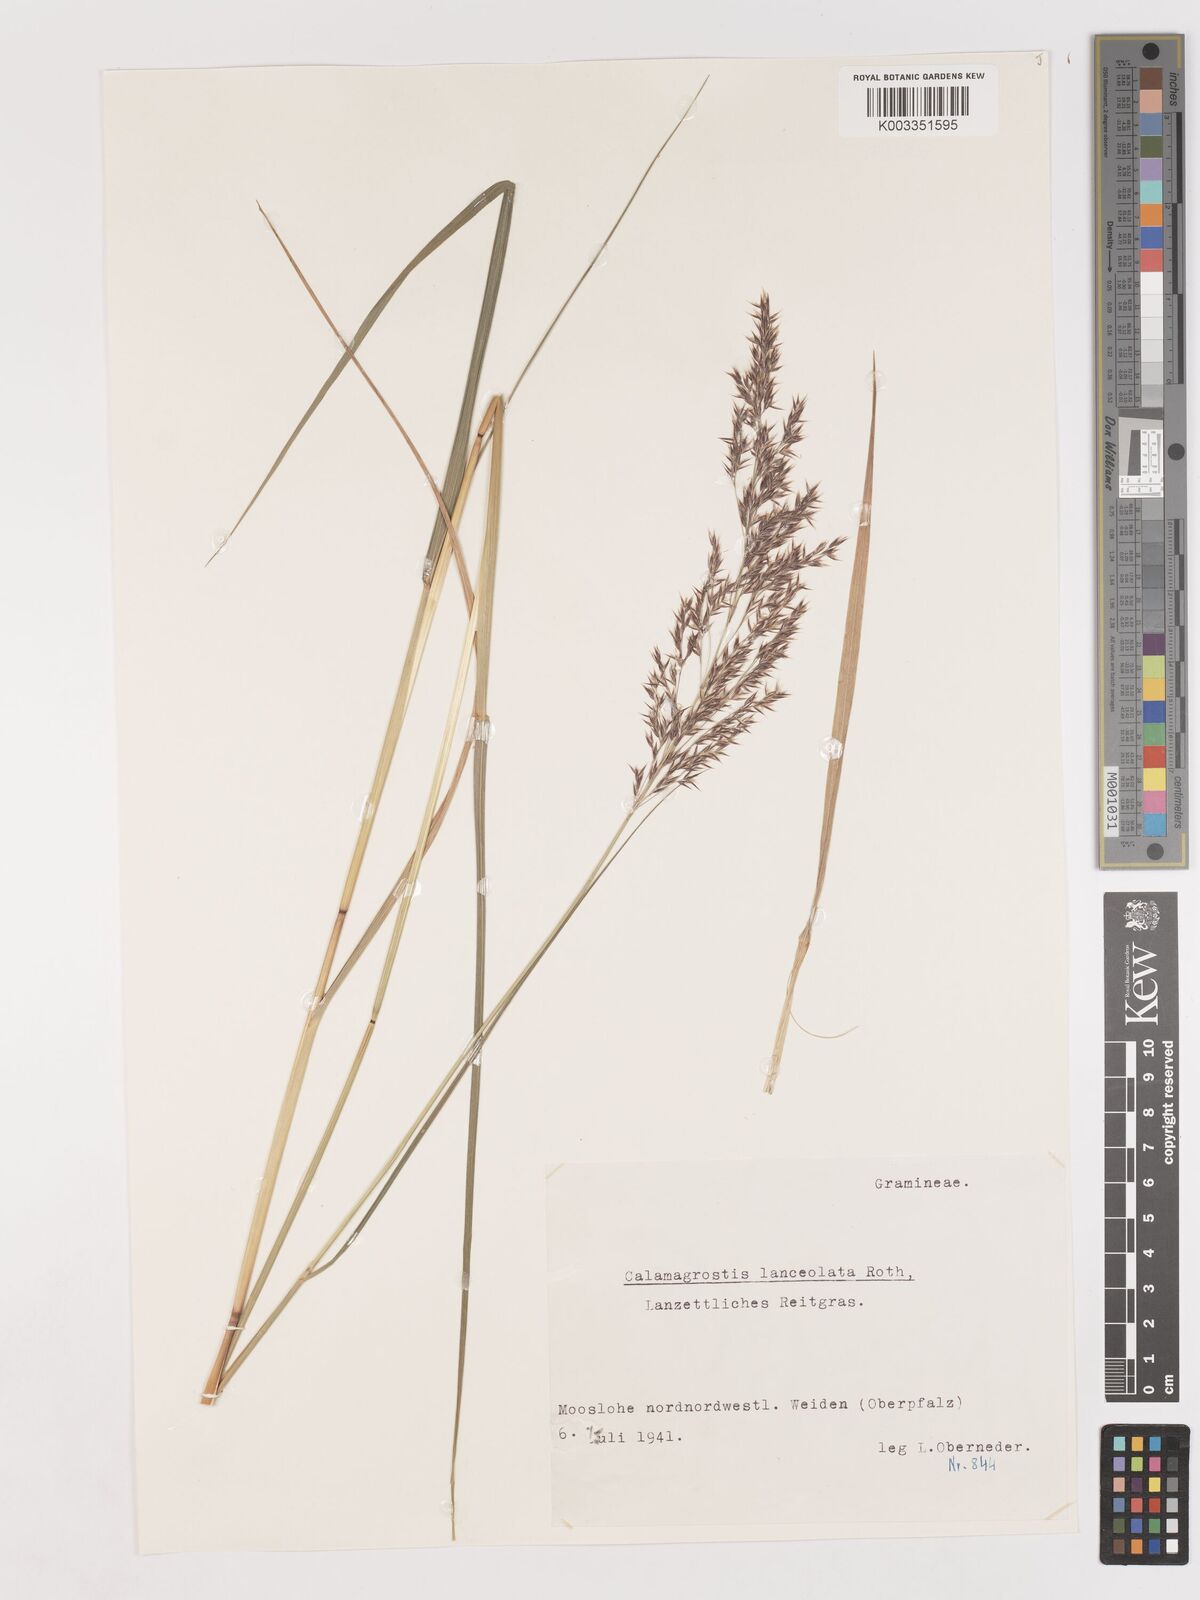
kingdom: Plantae
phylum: Tracheophyta
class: Liliopsida
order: Poales
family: Poaceae
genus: Calamagrostis
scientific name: Calamagrostis canescens
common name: Purple small-reed
